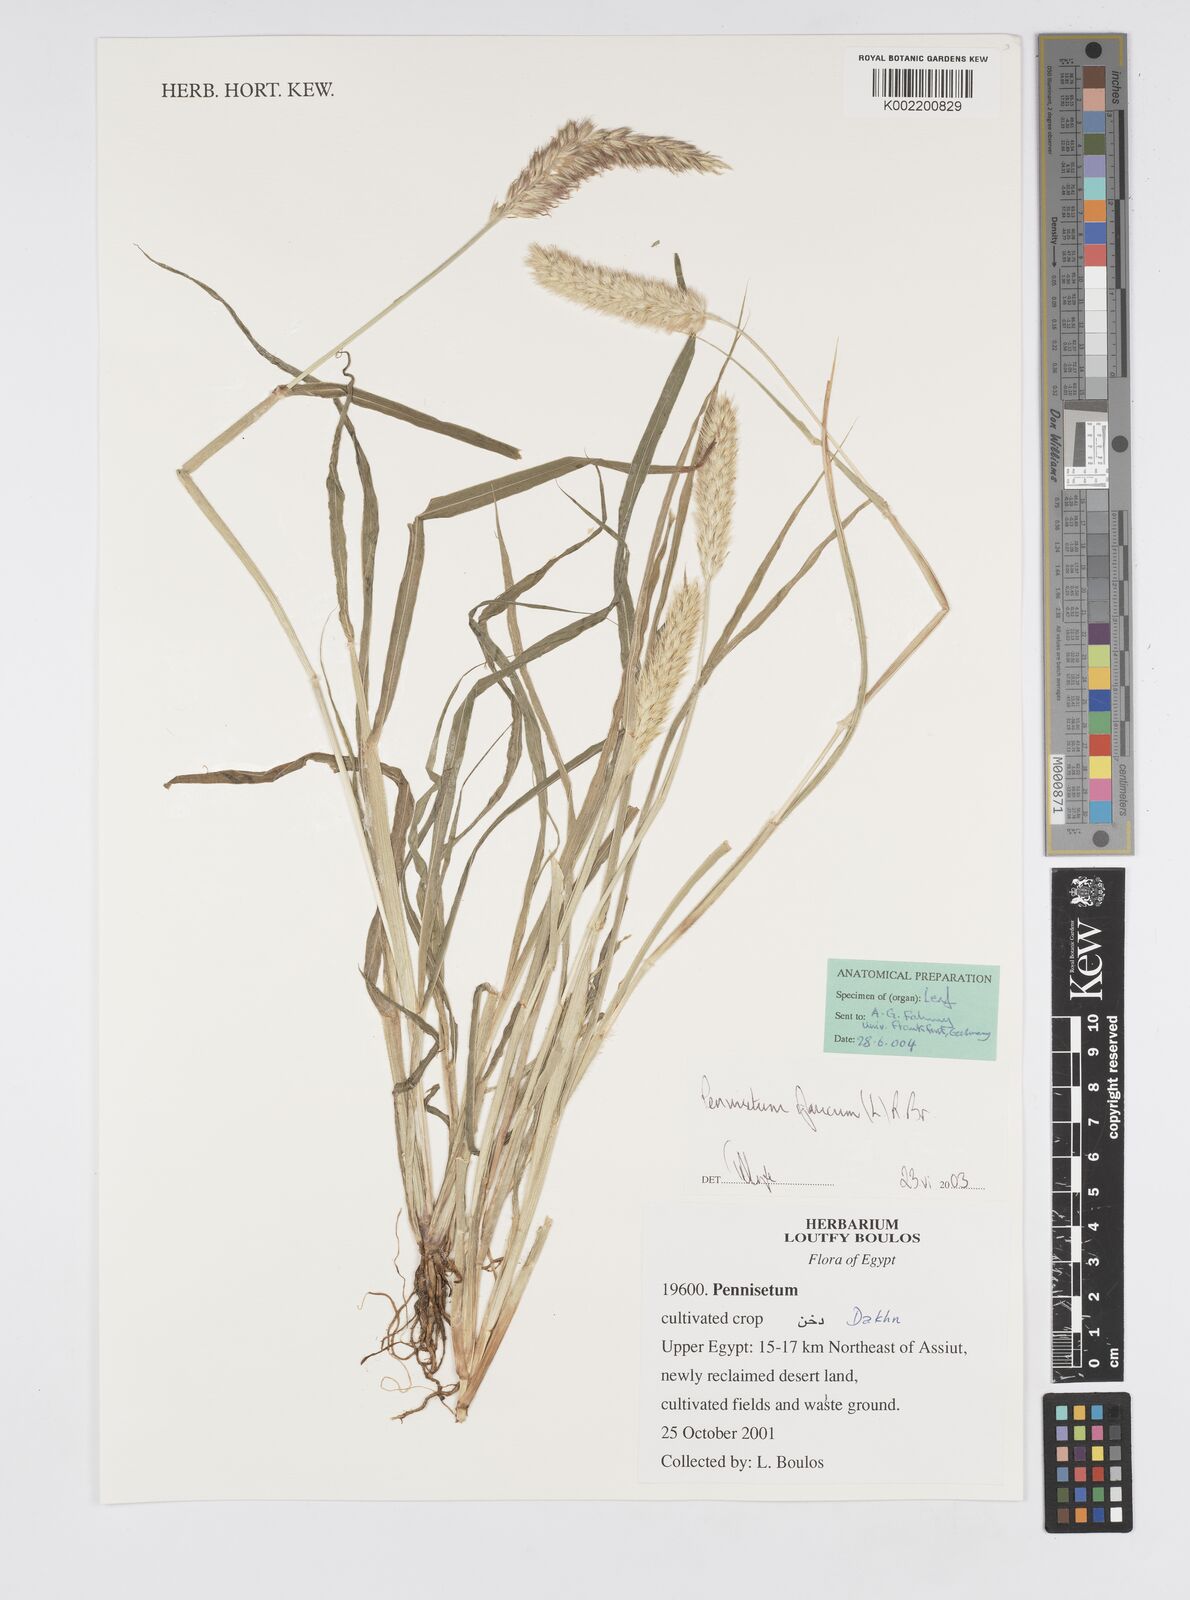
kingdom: Plantae
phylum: Tracheophyta
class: Liliopsida
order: Poales
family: Poaceae
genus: Cenchrus
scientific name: Cenchrus americanus
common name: Pearl millet
